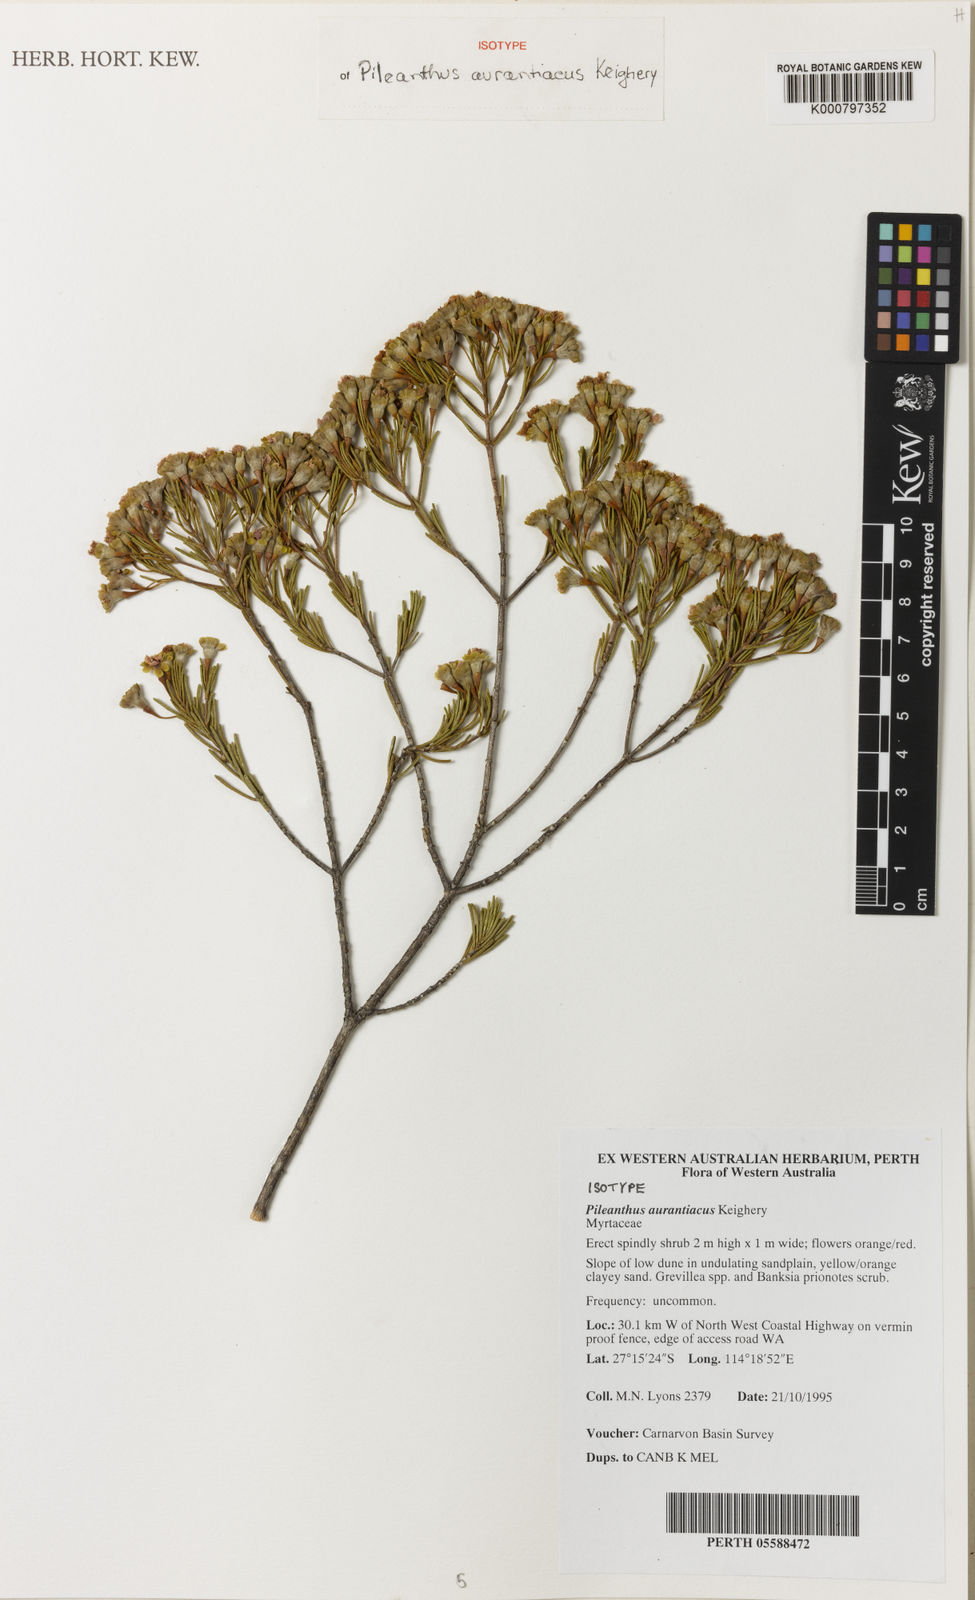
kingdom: Plantae
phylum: Tracheophyta
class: Magnoliopsida
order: Myrtales
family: Myrtaceae
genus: Pileanthus
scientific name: Pileanthus aurantiacus
